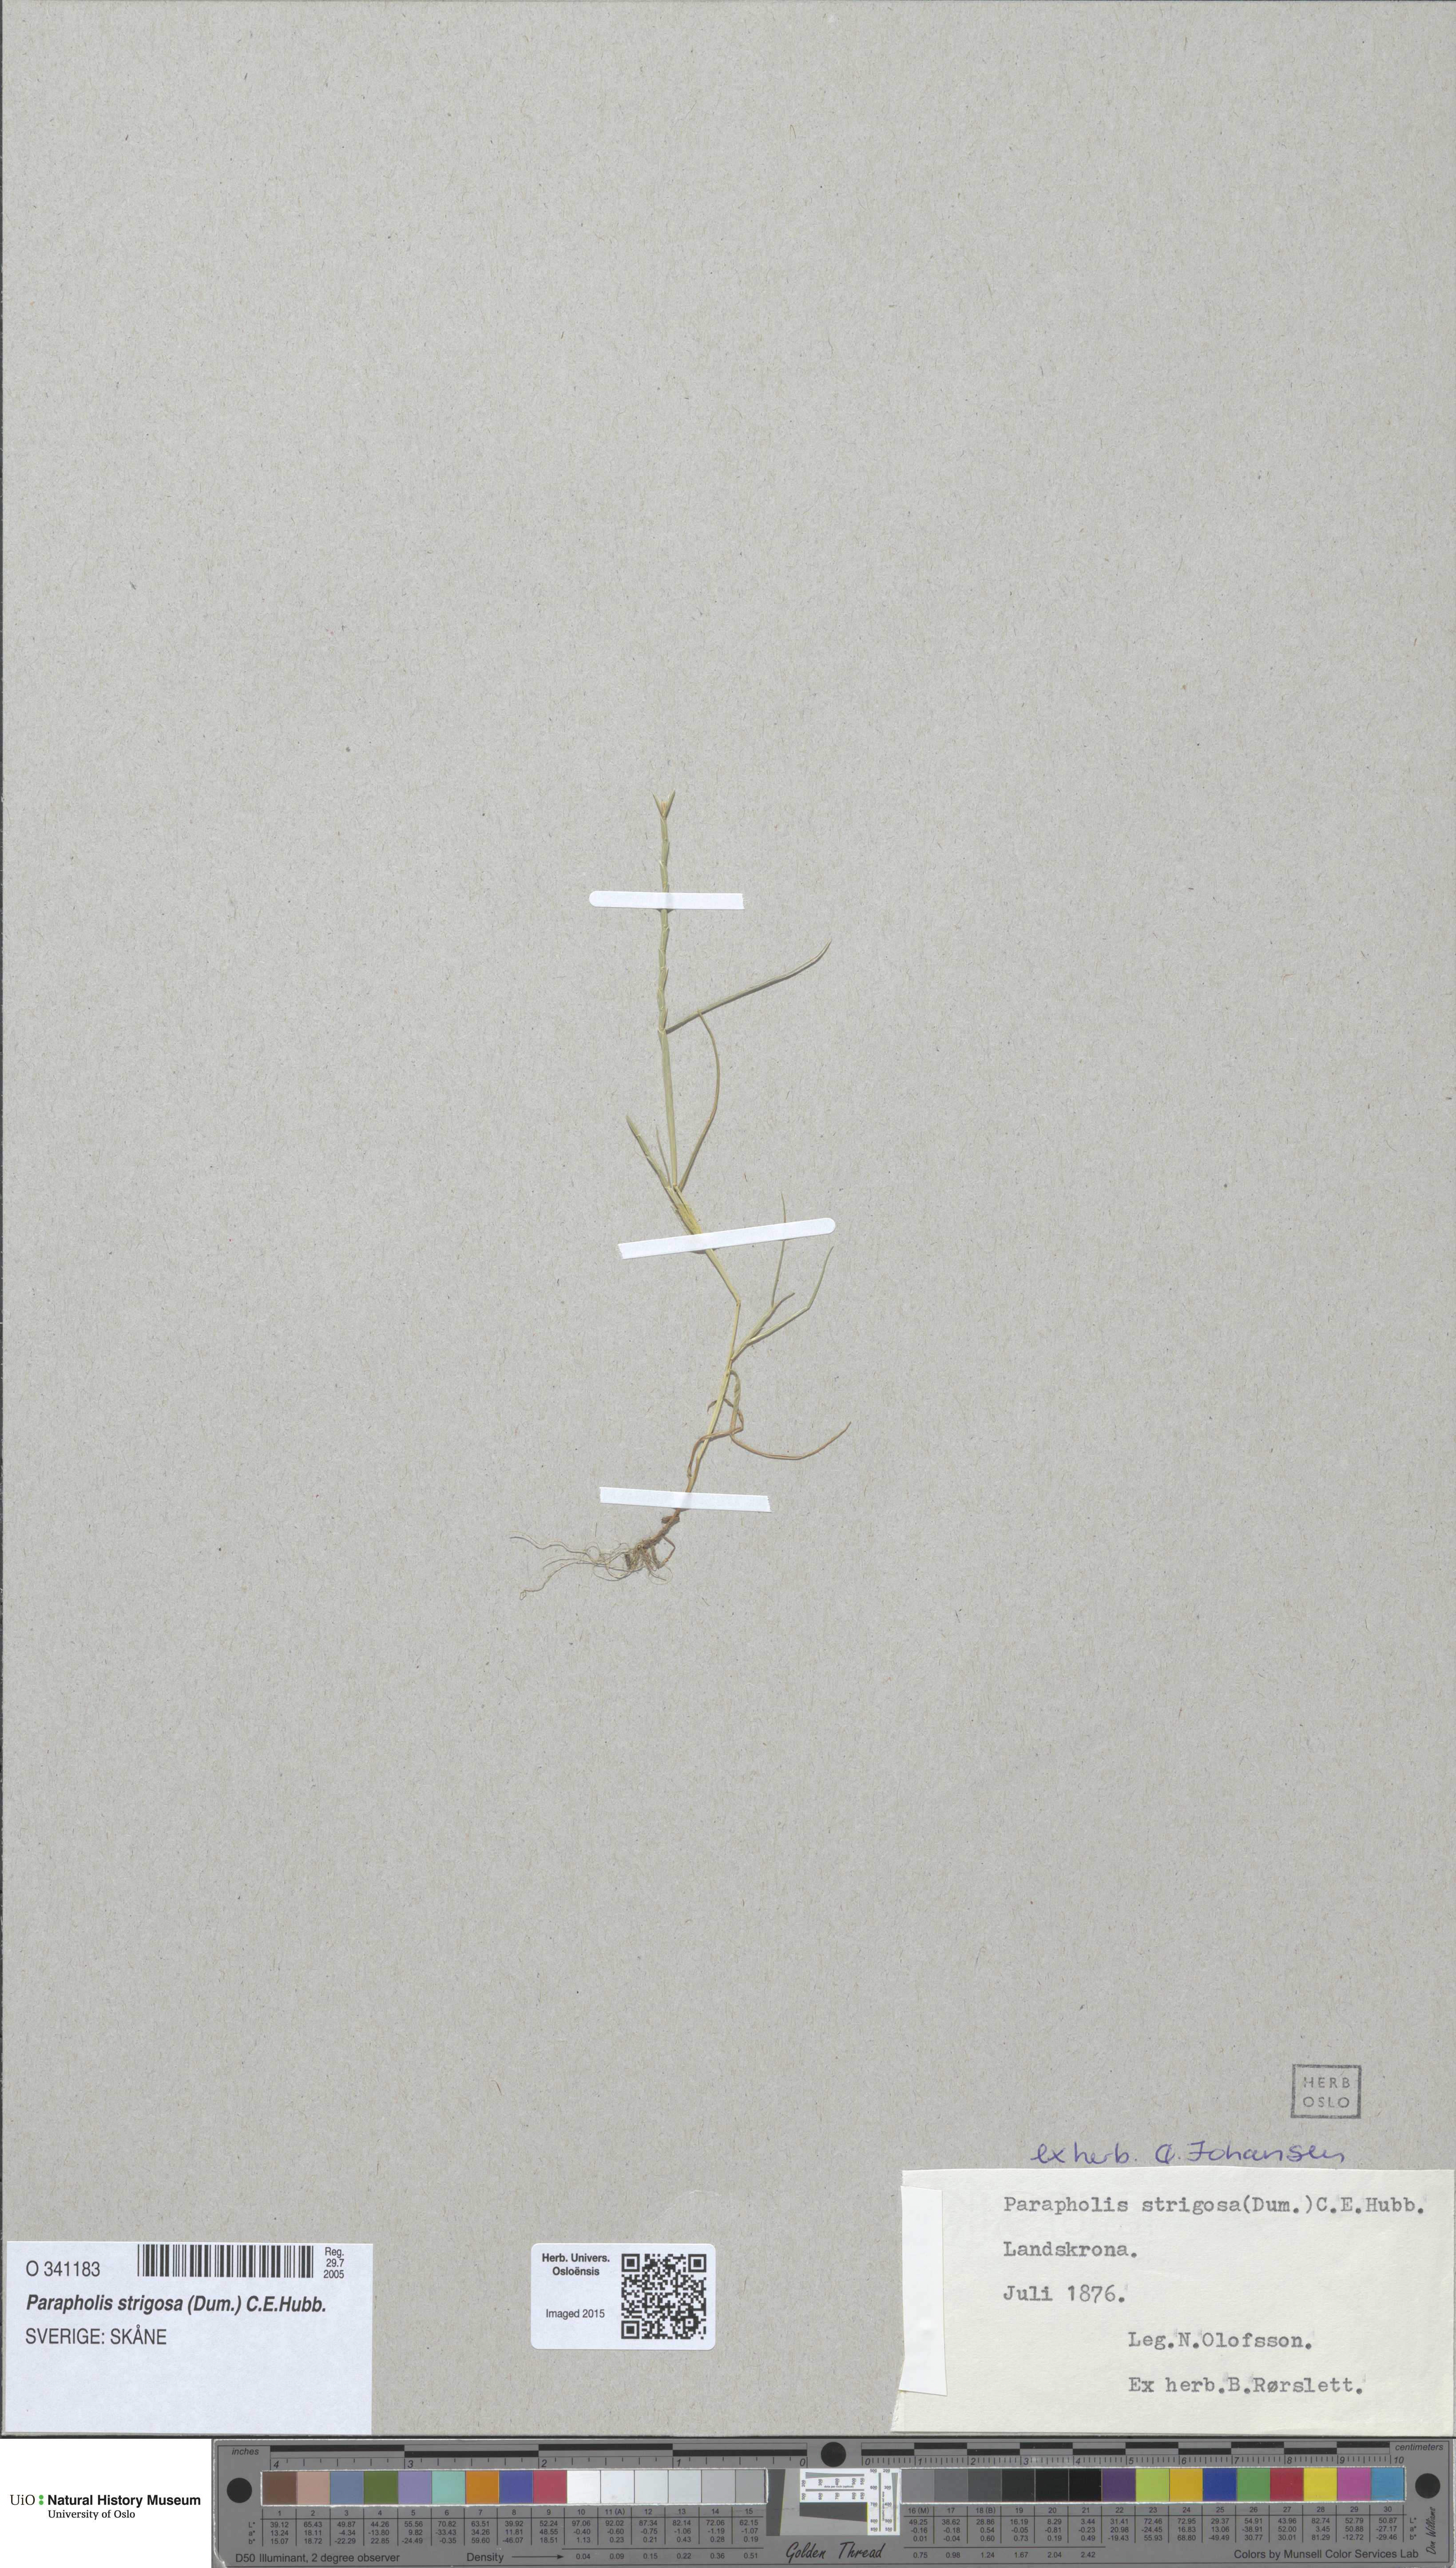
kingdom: Plantae
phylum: Tracheophyta
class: Liliopsida
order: Poales
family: Poaceae
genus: Parapholis
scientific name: Parapholis strigosa
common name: Hard-grass
